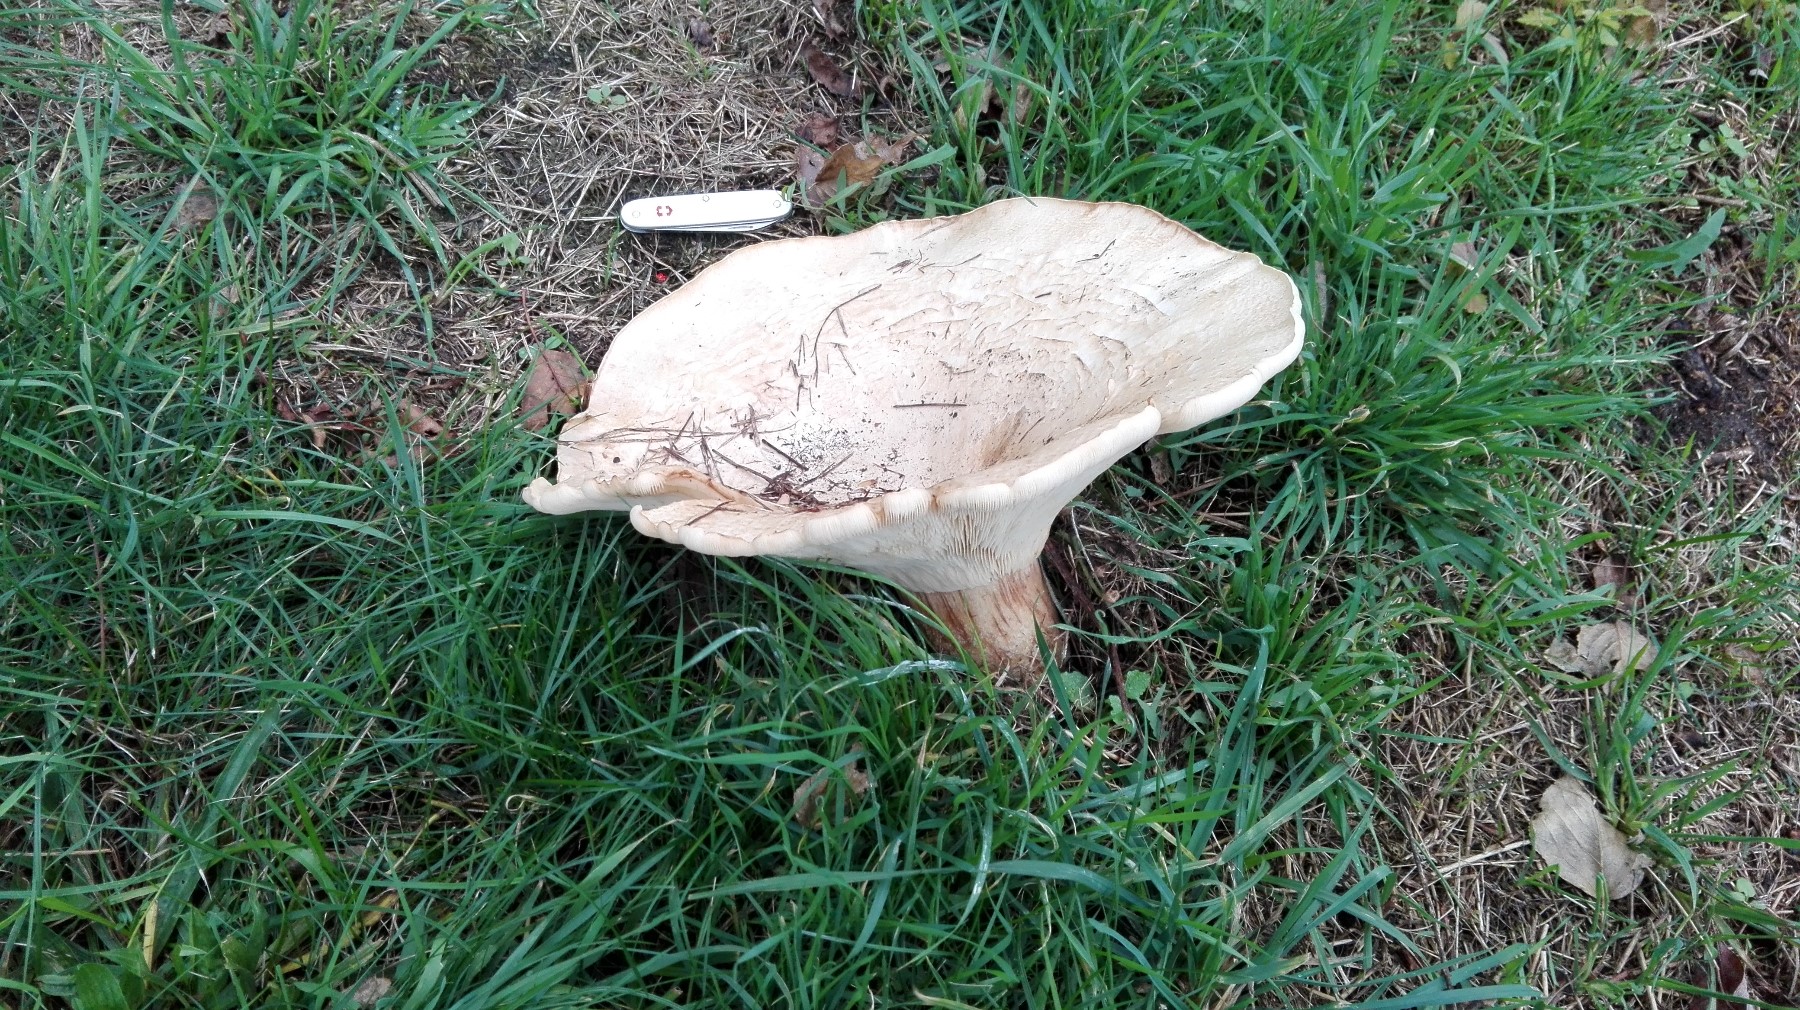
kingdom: Fungi
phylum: Basidiomycota
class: Agaricomycetes
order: Agaricales
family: Tricholomataceae
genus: Aspropaxillus
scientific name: Aspropaxillus giganteus
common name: kæmpe-tragtridderhat
